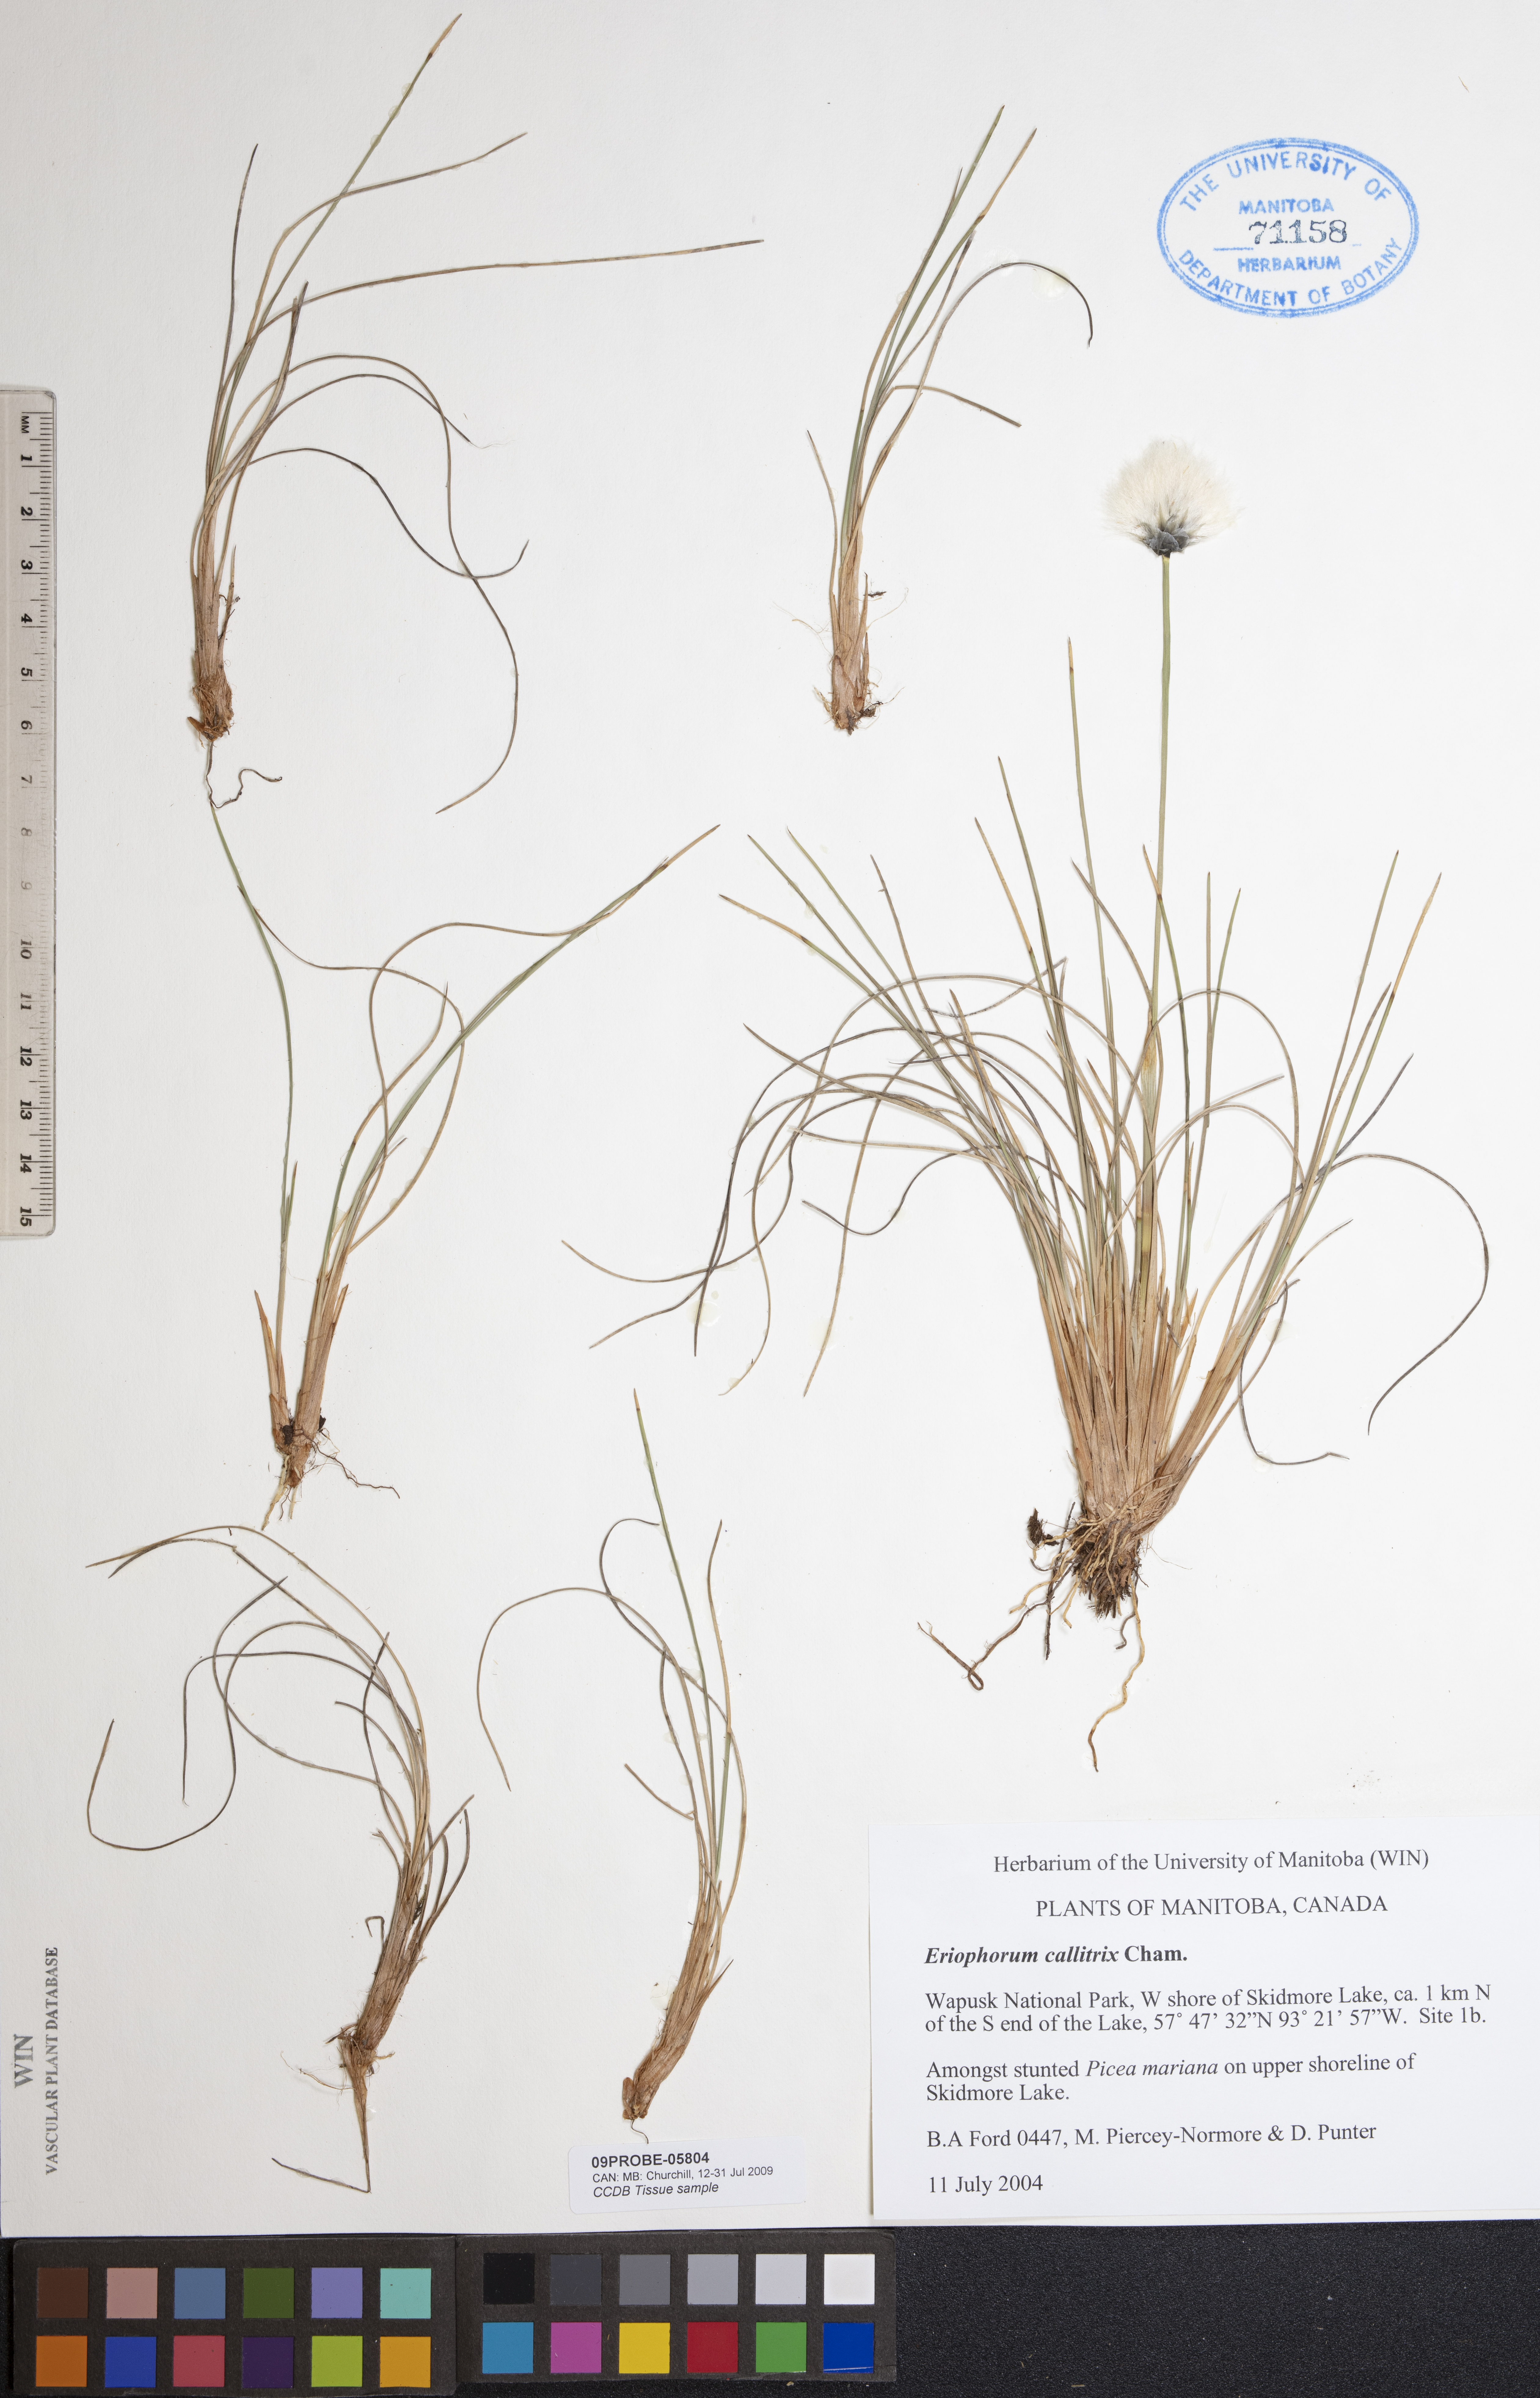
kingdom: Plantae
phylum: Tracheophyta
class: Liliopsida
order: Poales
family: Cyperaceae
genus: Eriophorum
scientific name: Eriophorum callitrix
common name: Arctic cottongrass
